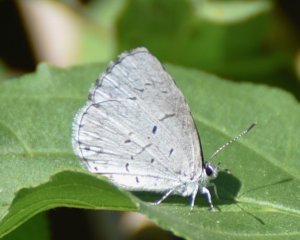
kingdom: Animalia
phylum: Arthropoda
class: Insecta
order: Lepidoptera
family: Lycaenidae
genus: Cyaniris
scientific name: Cyaniris neglecta
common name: Summer Azure
